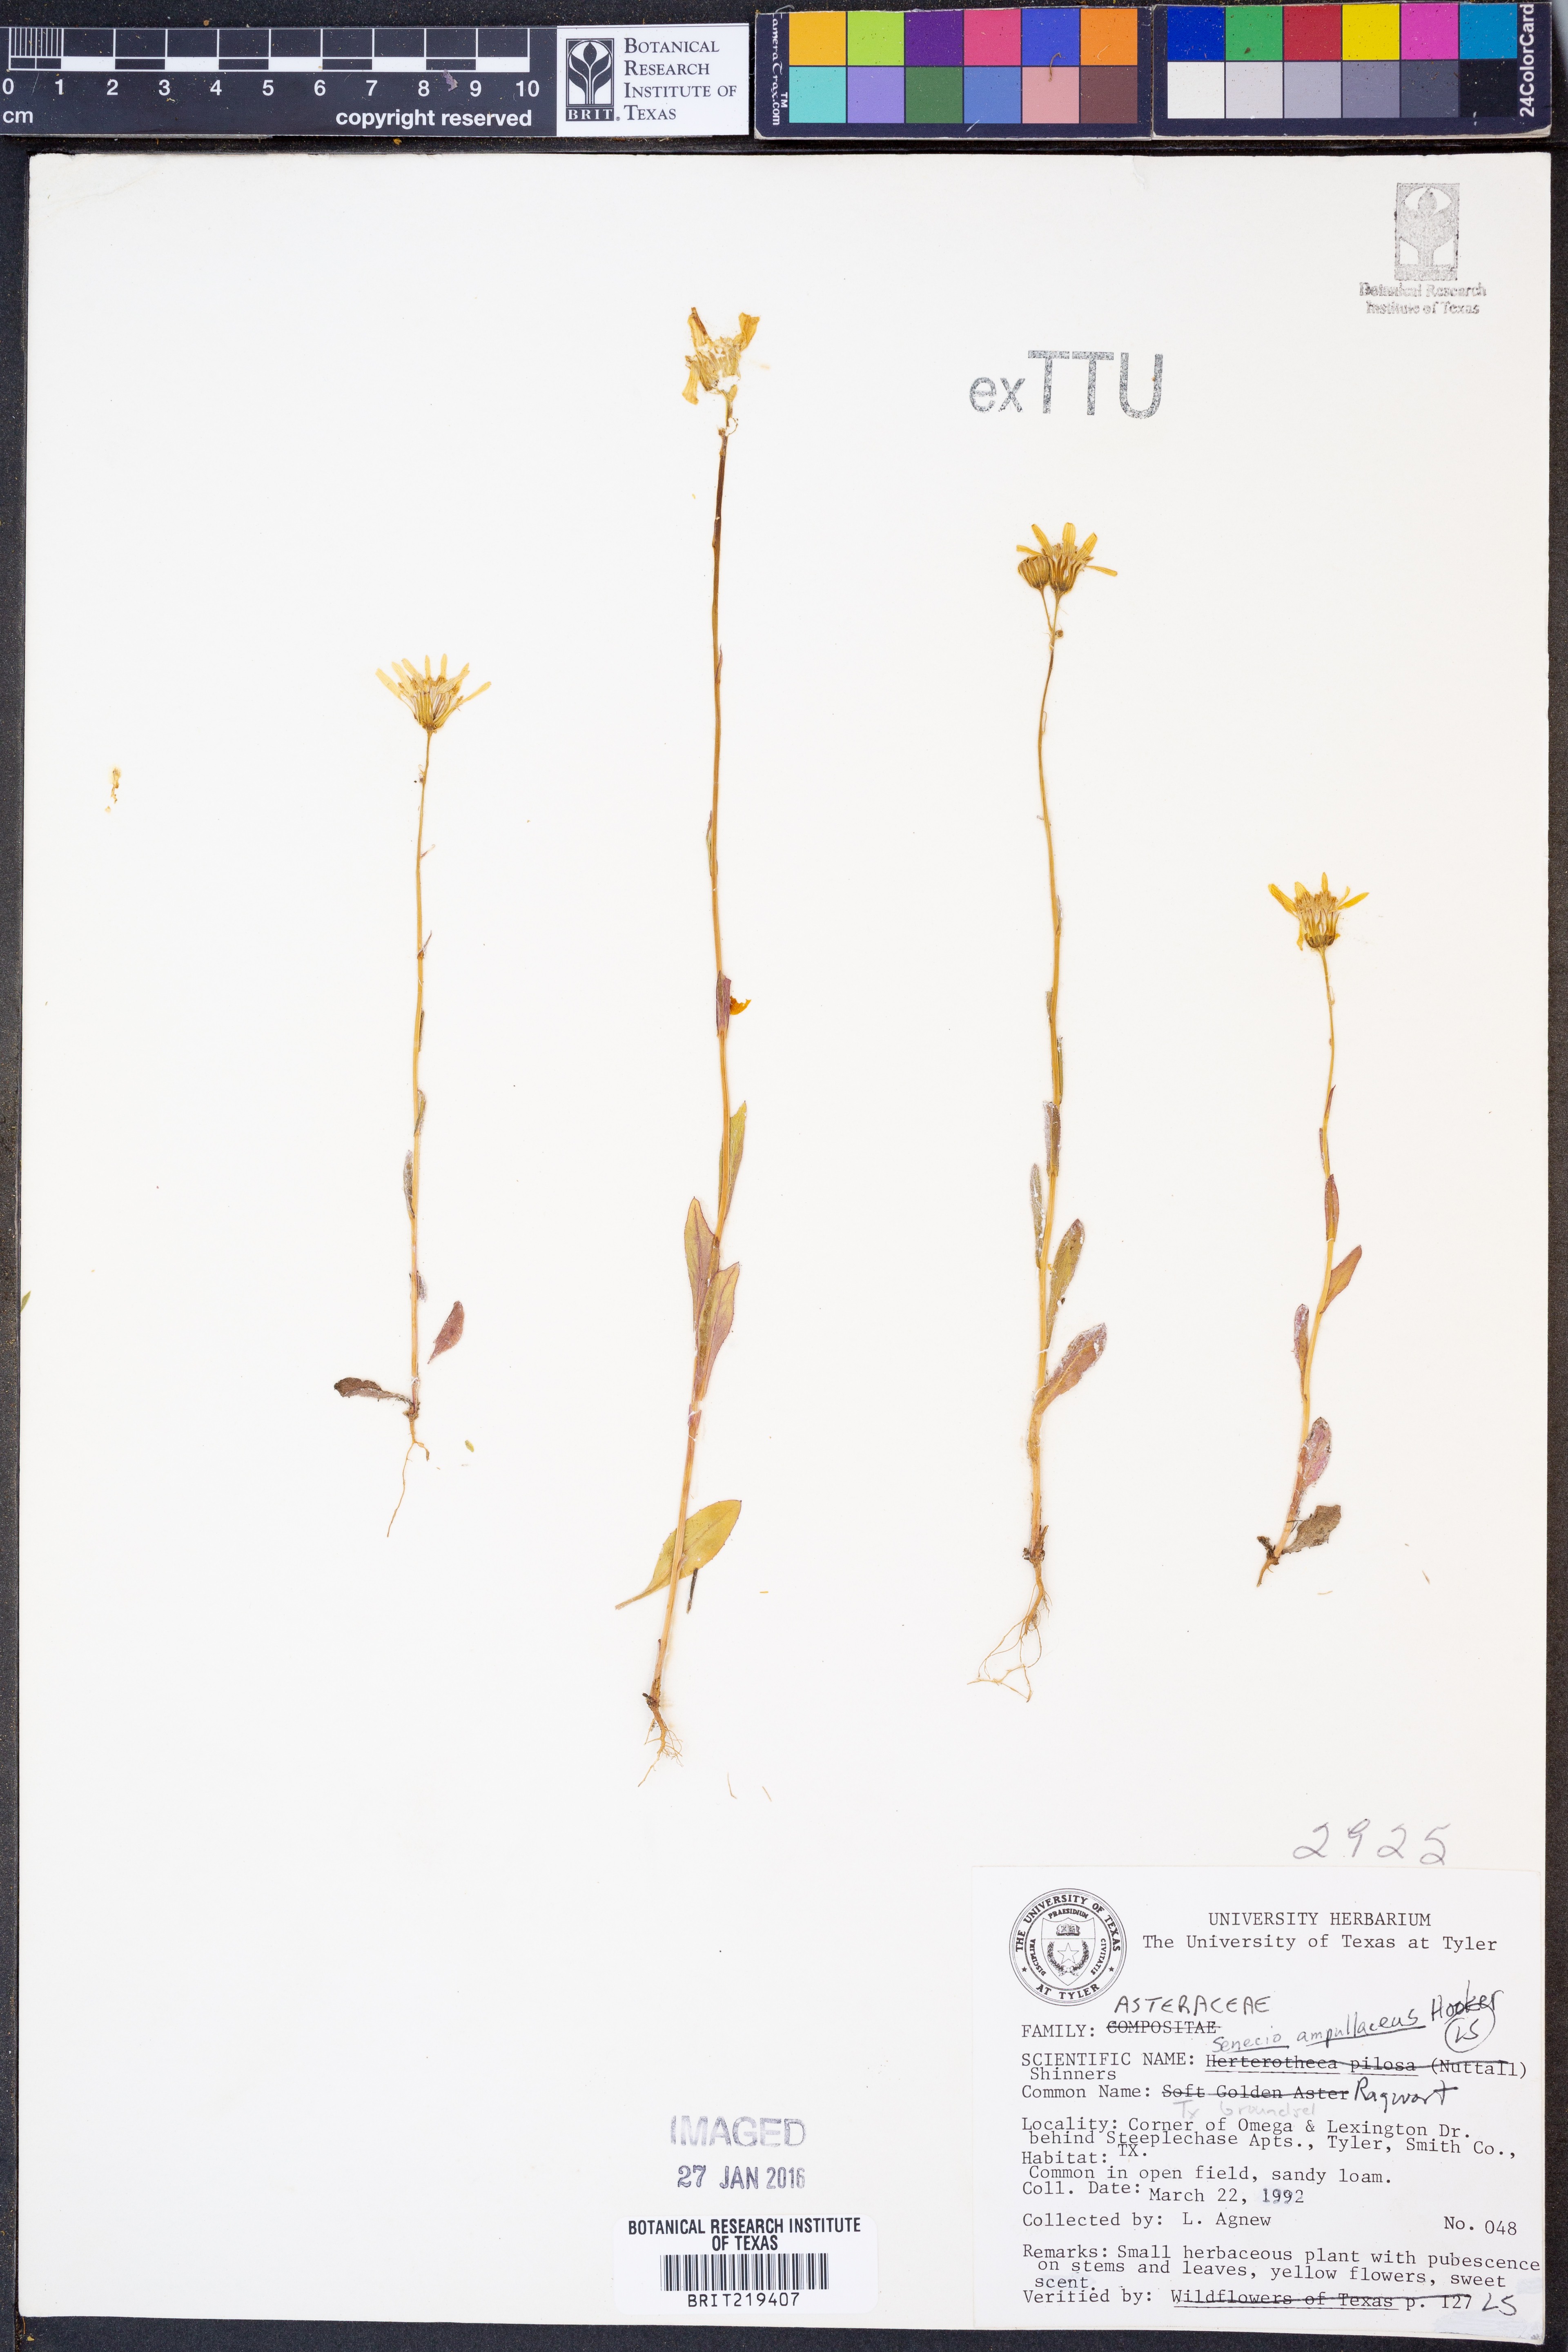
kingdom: Plantae
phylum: Tracheophyta
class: Magnoliopsida
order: Asterales
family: Asteraceae
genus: Senecio
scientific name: Senecio ampullaceus
